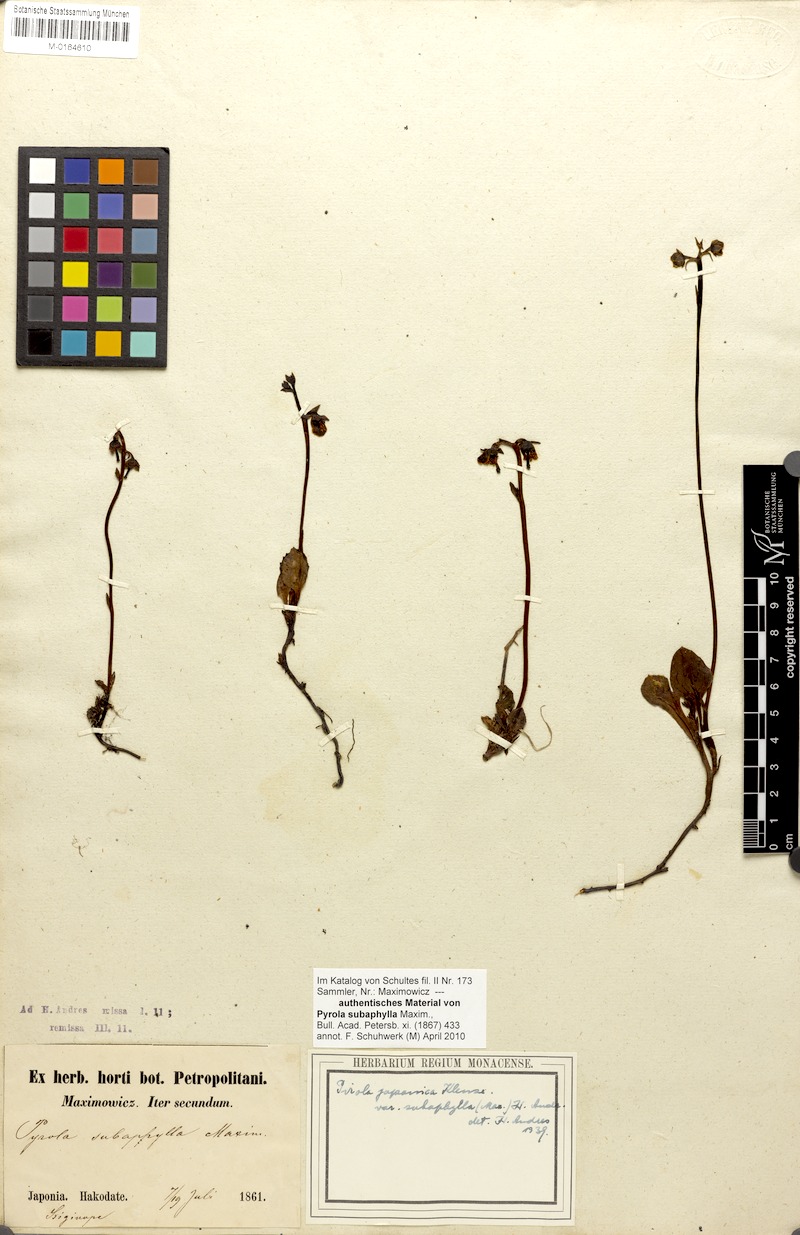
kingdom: Plantae
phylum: Tracheophyta
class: Magnoliopsida
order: Ericales
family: Ericaceae
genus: Pyrola
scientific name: Pyrola subaphylla
